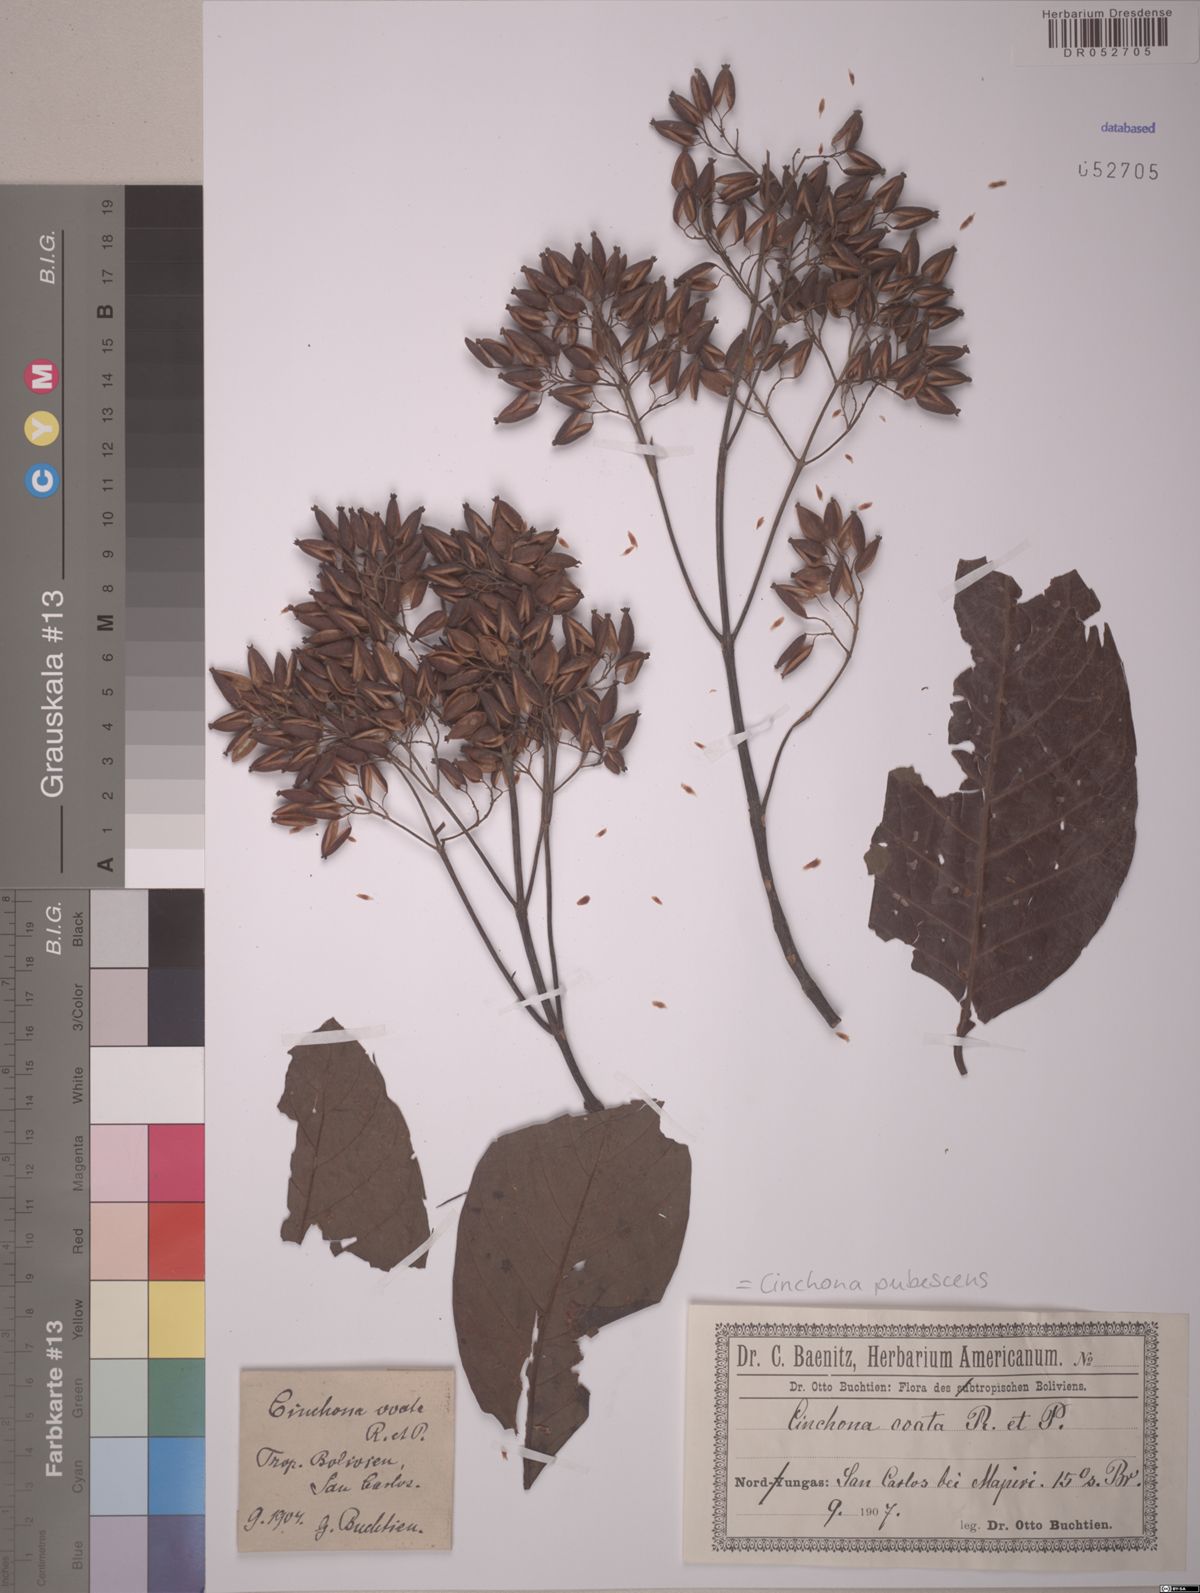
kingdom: Plantae
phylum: Tracheophyta
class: Magnoliopsida
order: Gentianales
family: Rubiaceae
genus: Cinchona
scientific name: Cinchona pubescens
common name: Quinine
